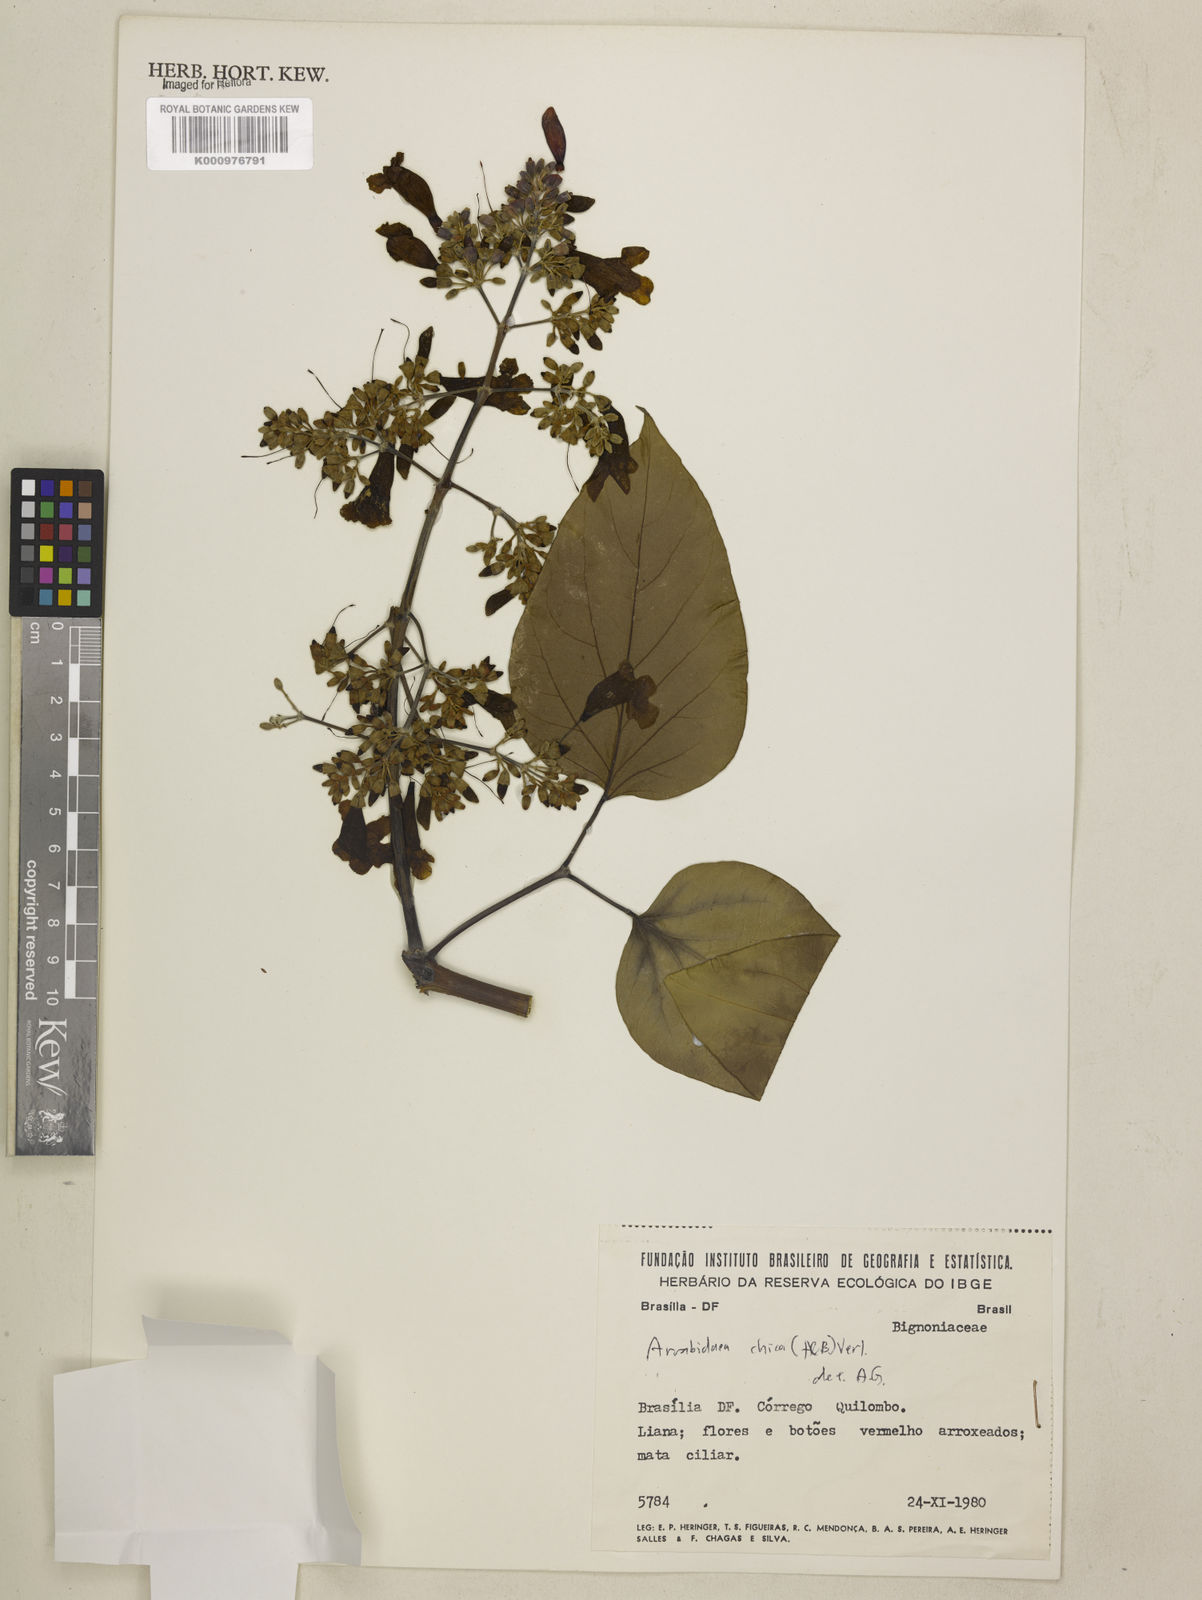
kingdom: Plantae
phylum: Tracheophyta
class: Magnoliopsida
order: Lamiales
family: Bignoniaceae
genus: Fridericia
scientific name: Fridericia chica
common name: Cricketvine
